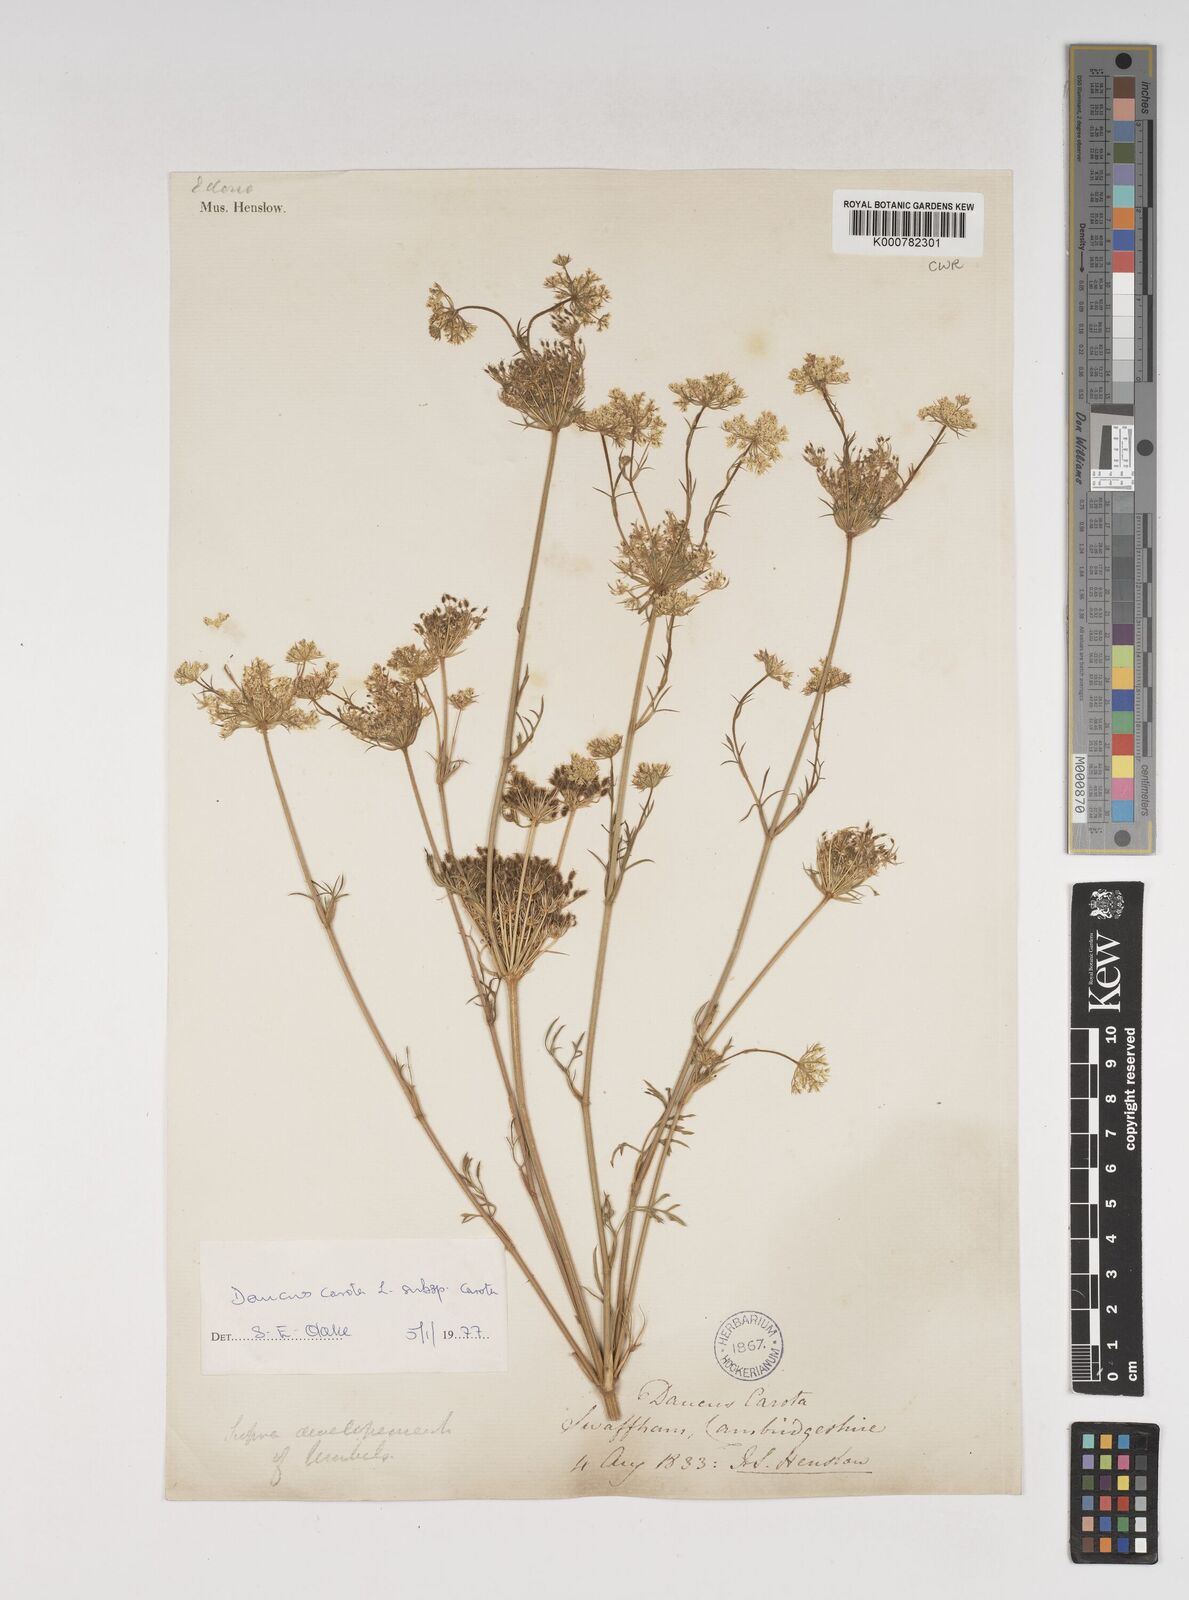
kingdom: Plantae
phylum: Tracheophyta
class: Magnoliopsida
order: Apiales
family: Apiaceae
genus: Daucus
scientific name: Daucus carota
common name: Wild carrot
